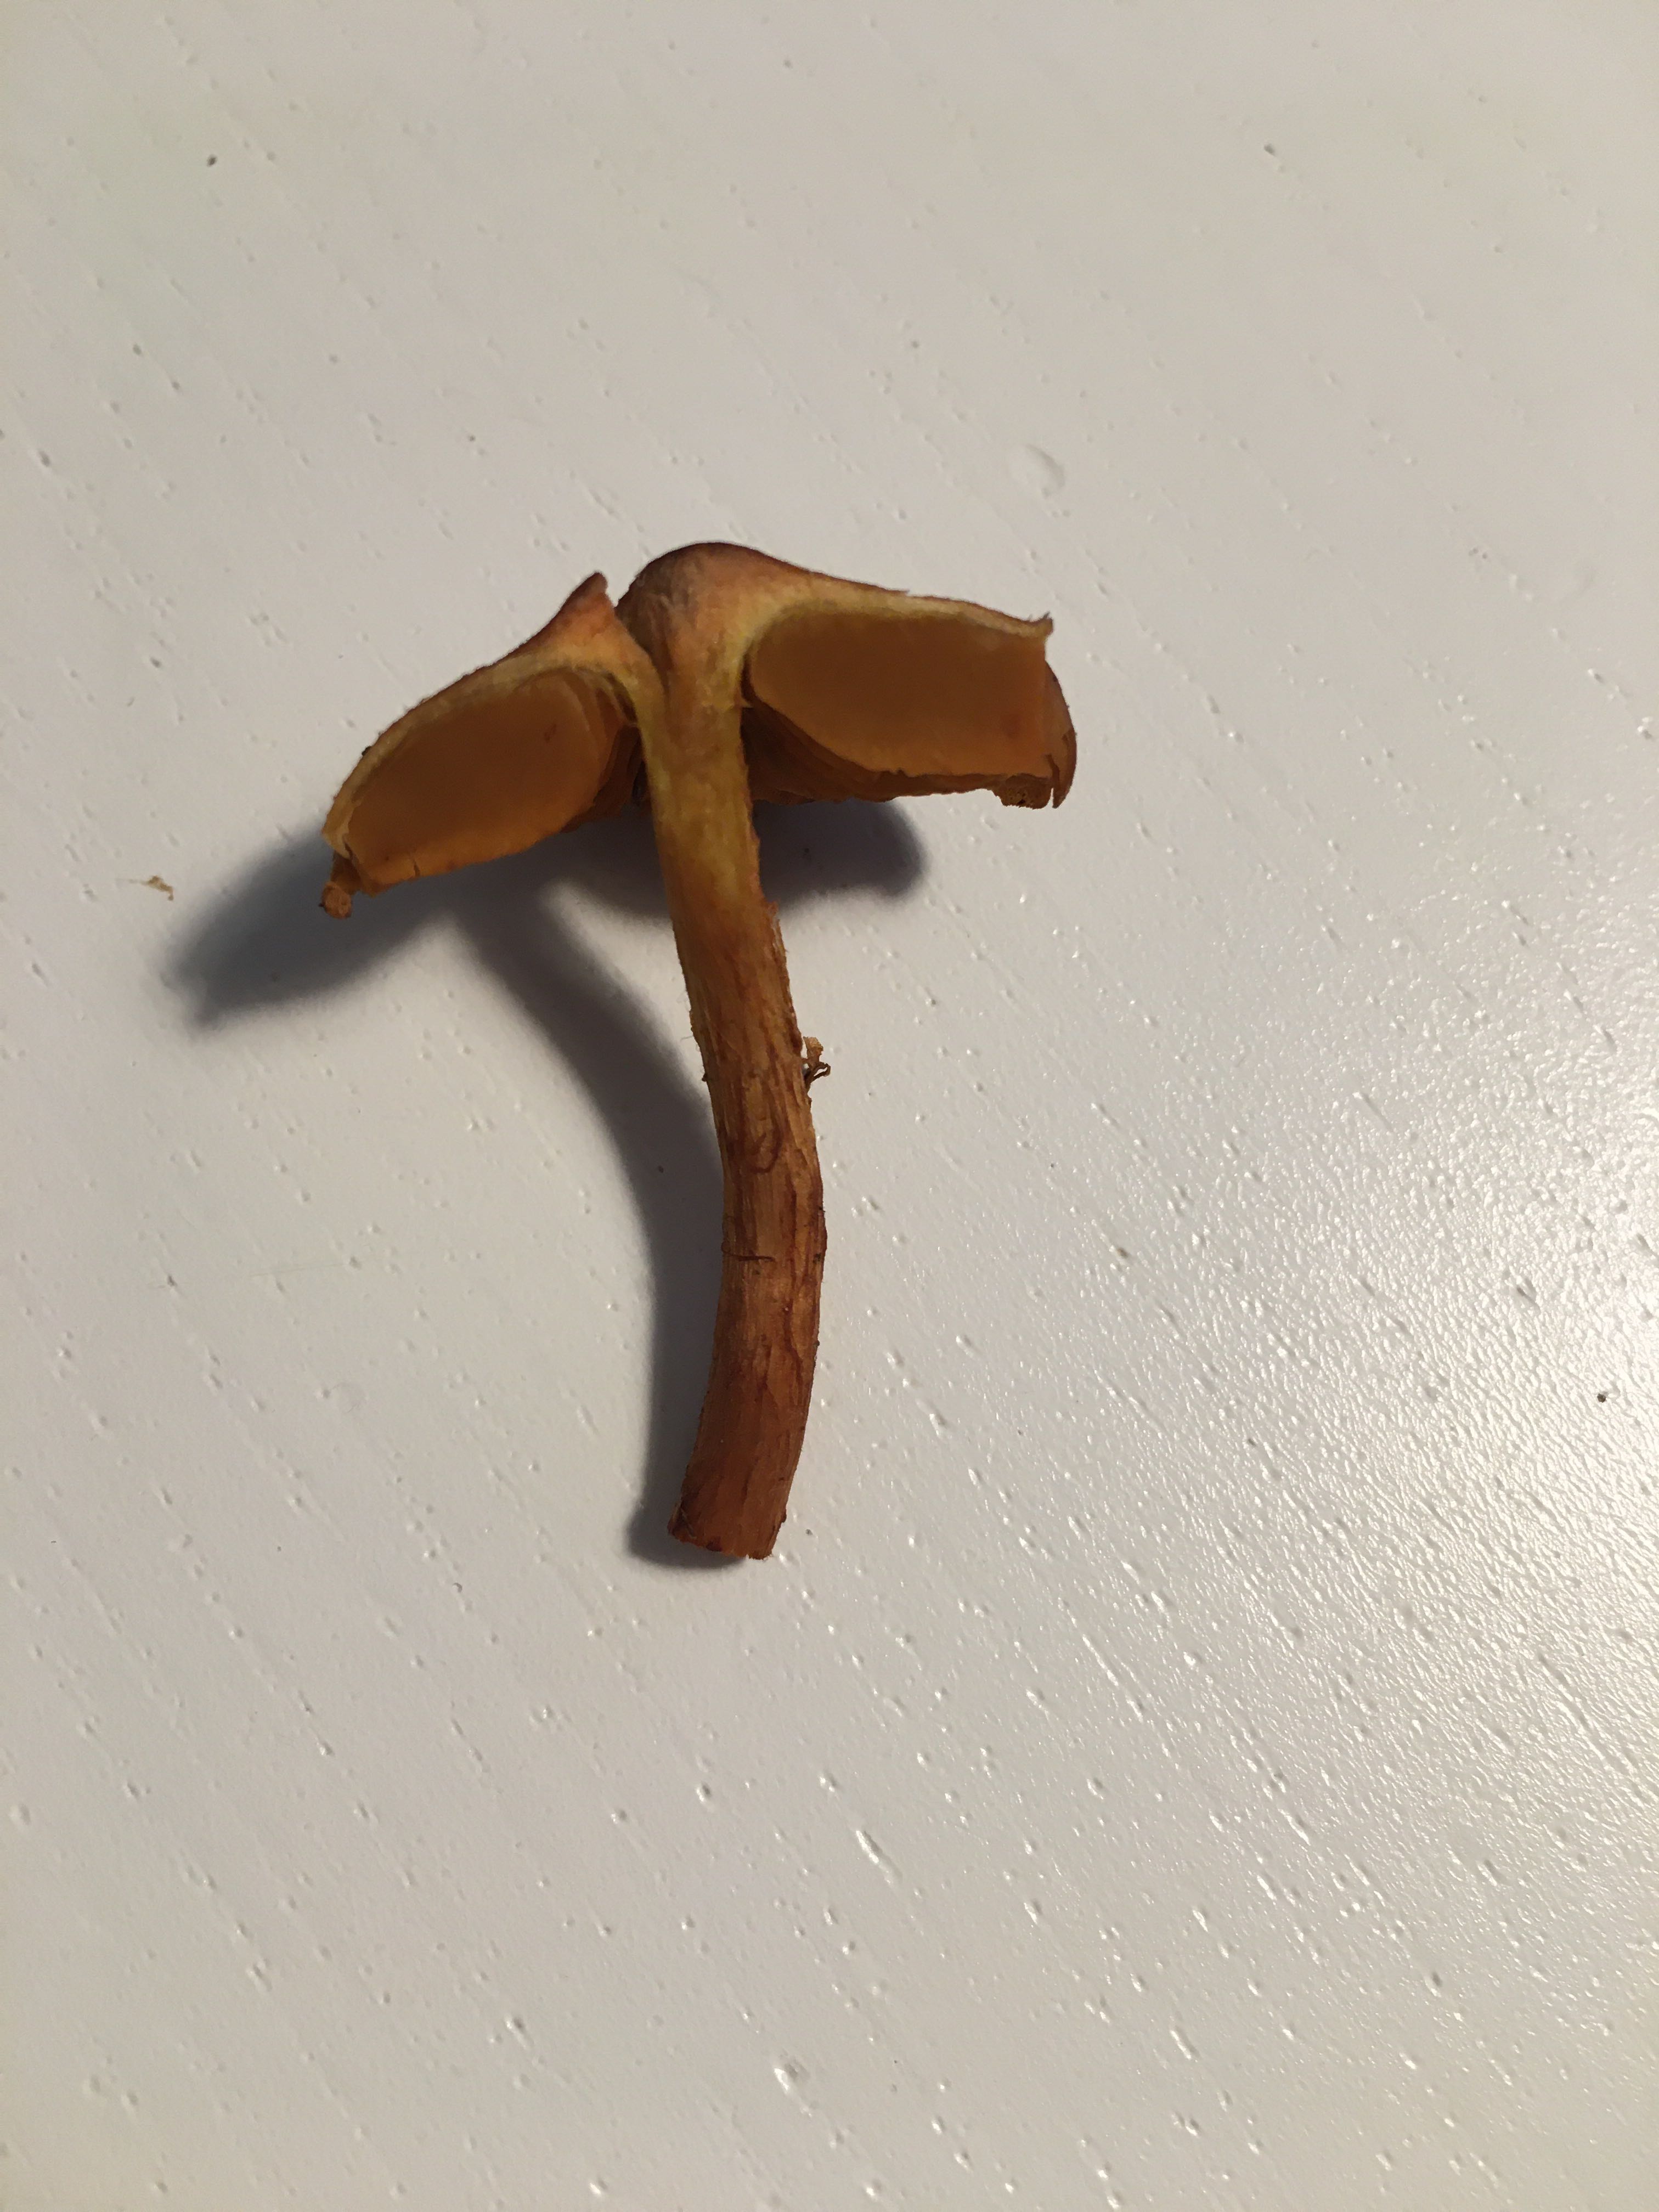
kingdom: Fungi
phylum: Basidiomycota
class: Agaricomycetes
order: Agaricales
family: Cortinariaceae
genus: Cortinarius
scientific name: Cortinarius
